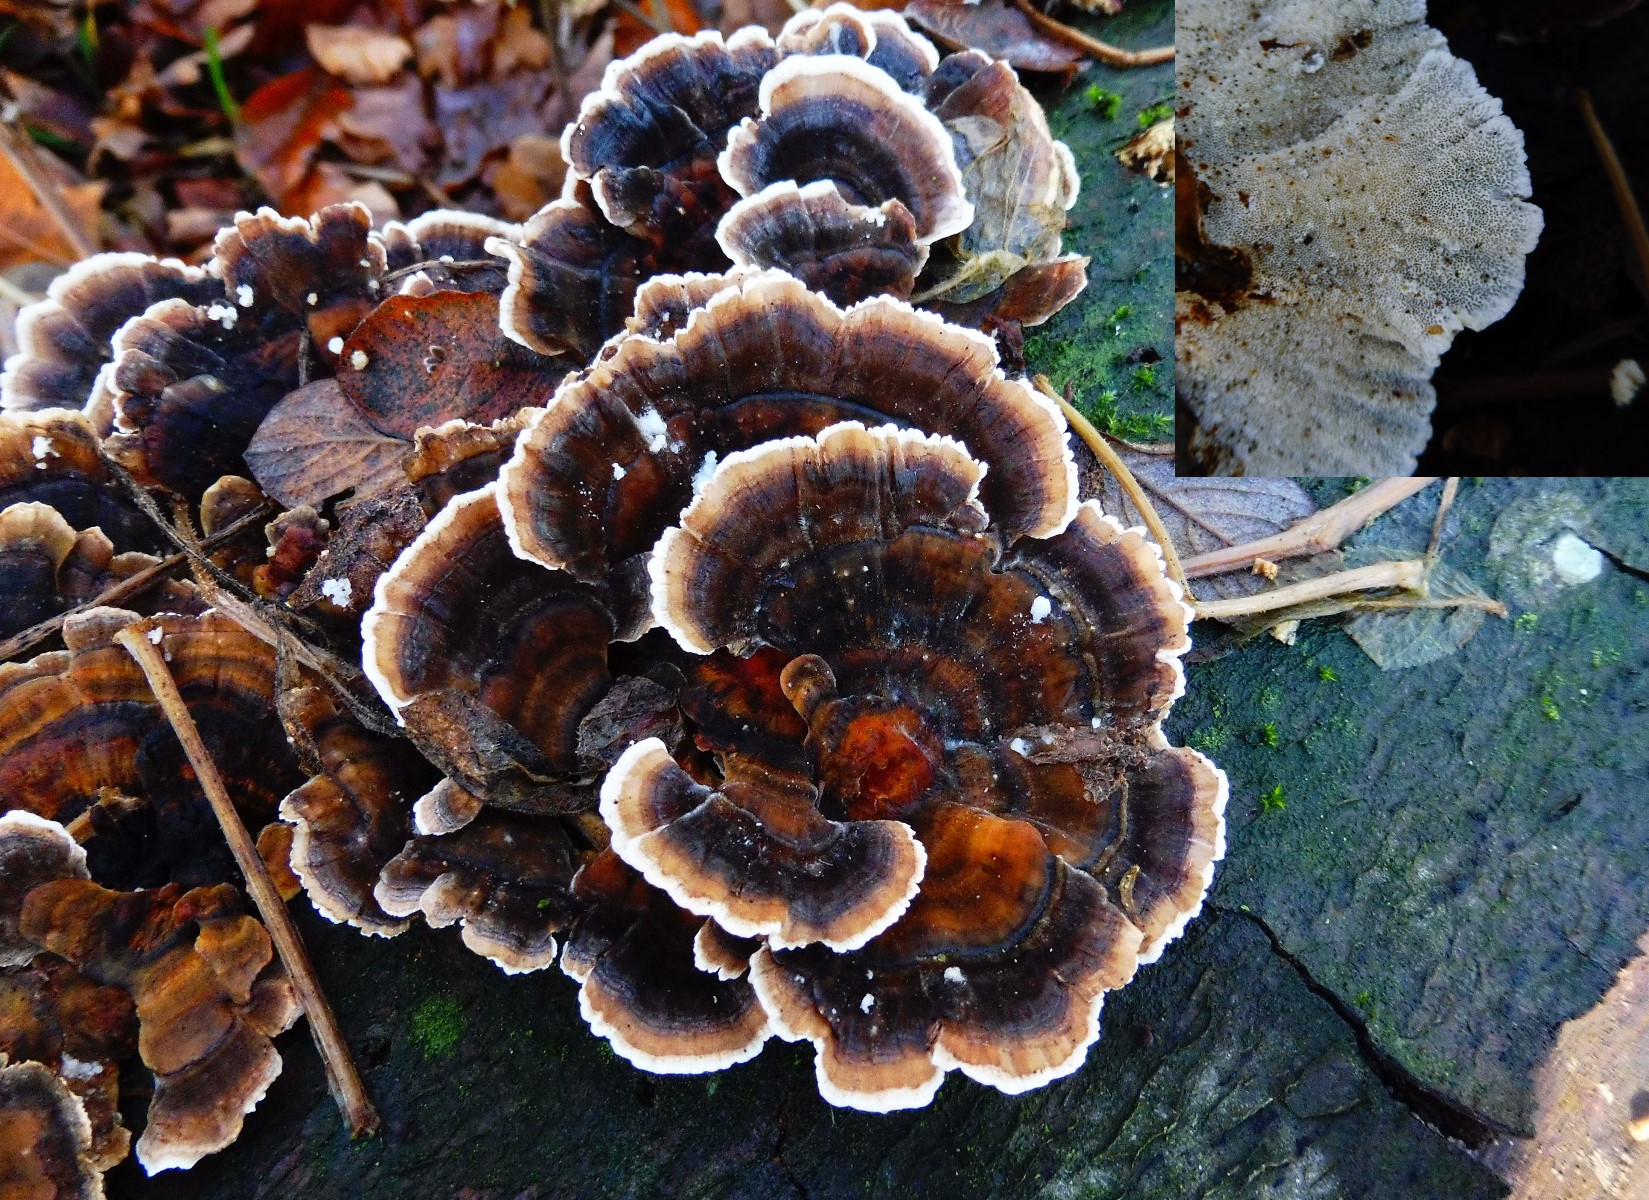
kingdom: Fungi
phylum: Basidiomycota
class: Agaricomycetes
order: Polyporales
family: Polyporaceae
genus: Trametes
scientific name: Trametes versicolor
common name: broget læderporesvamp
